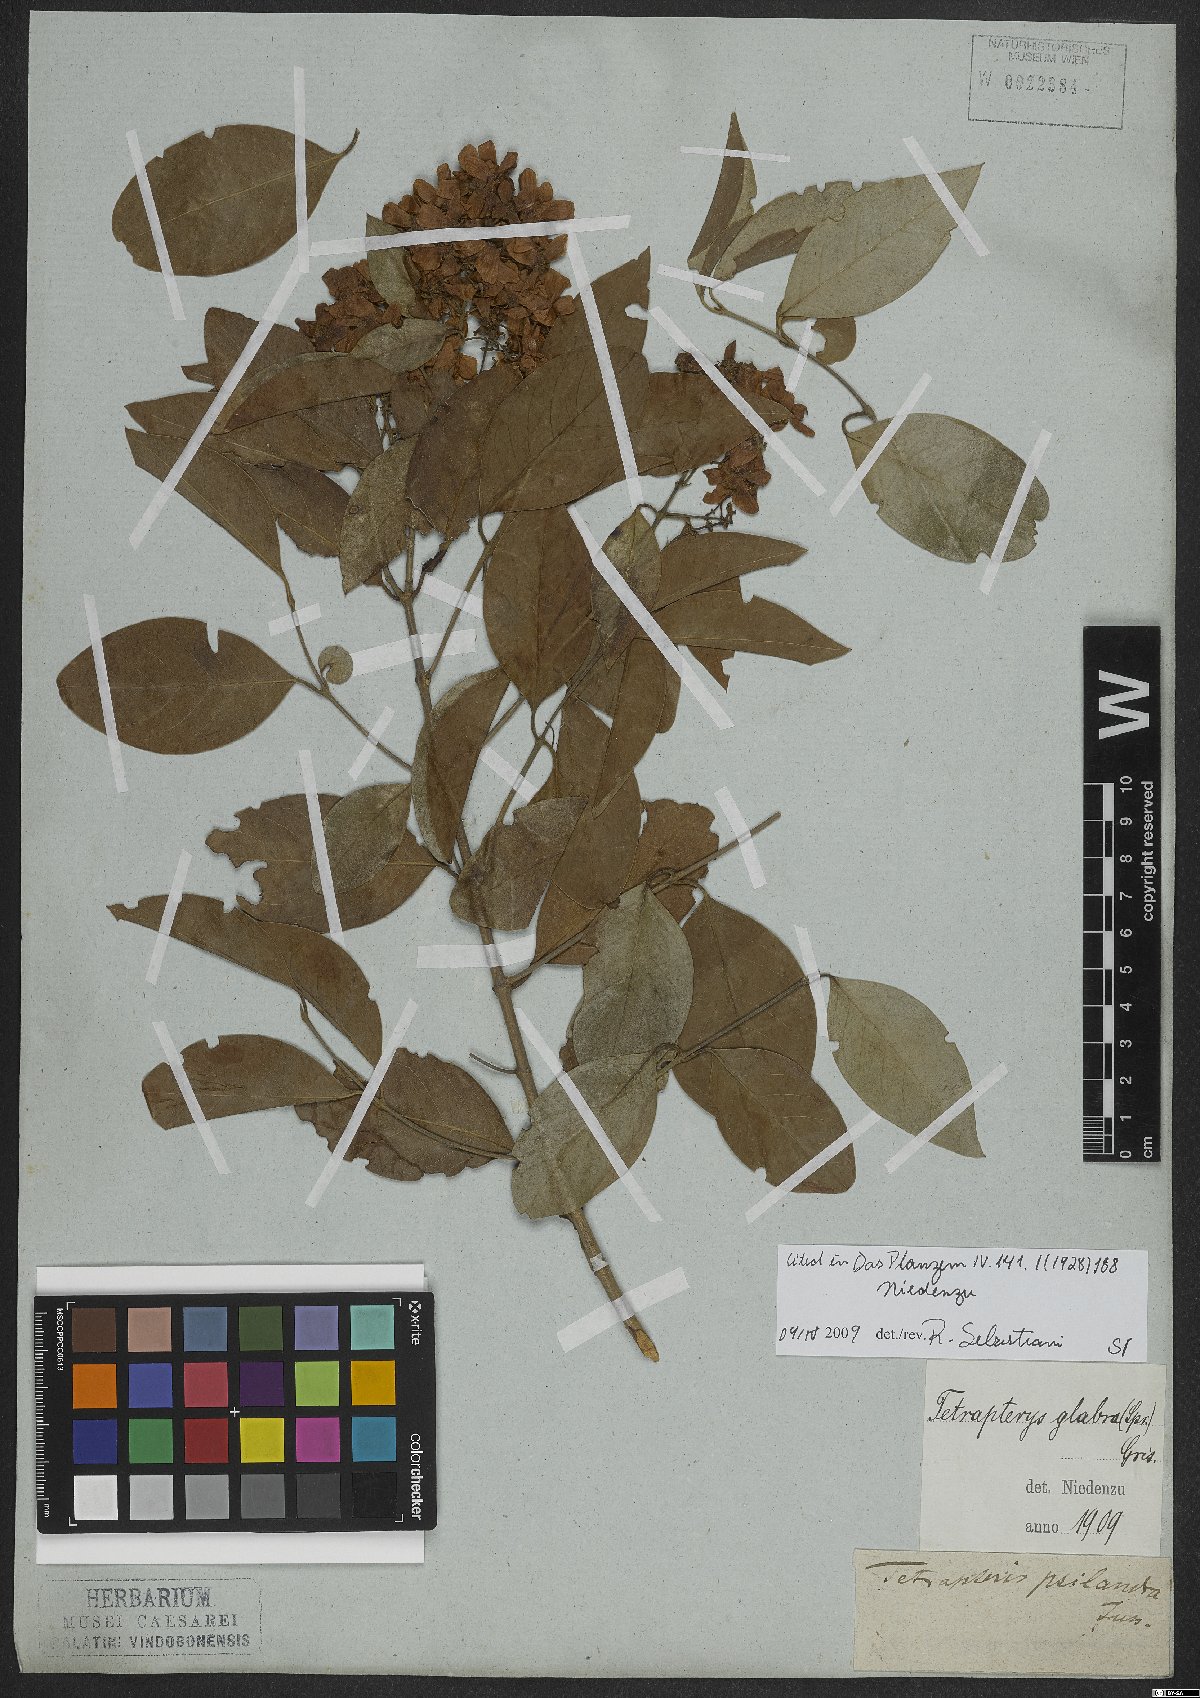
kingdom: Plantae
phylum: Tracheophyta
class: Magnoliopsida
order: Malpighiales
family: Malpighiaceae
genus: Niedenzuella
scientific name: Niedenzuella glabra
